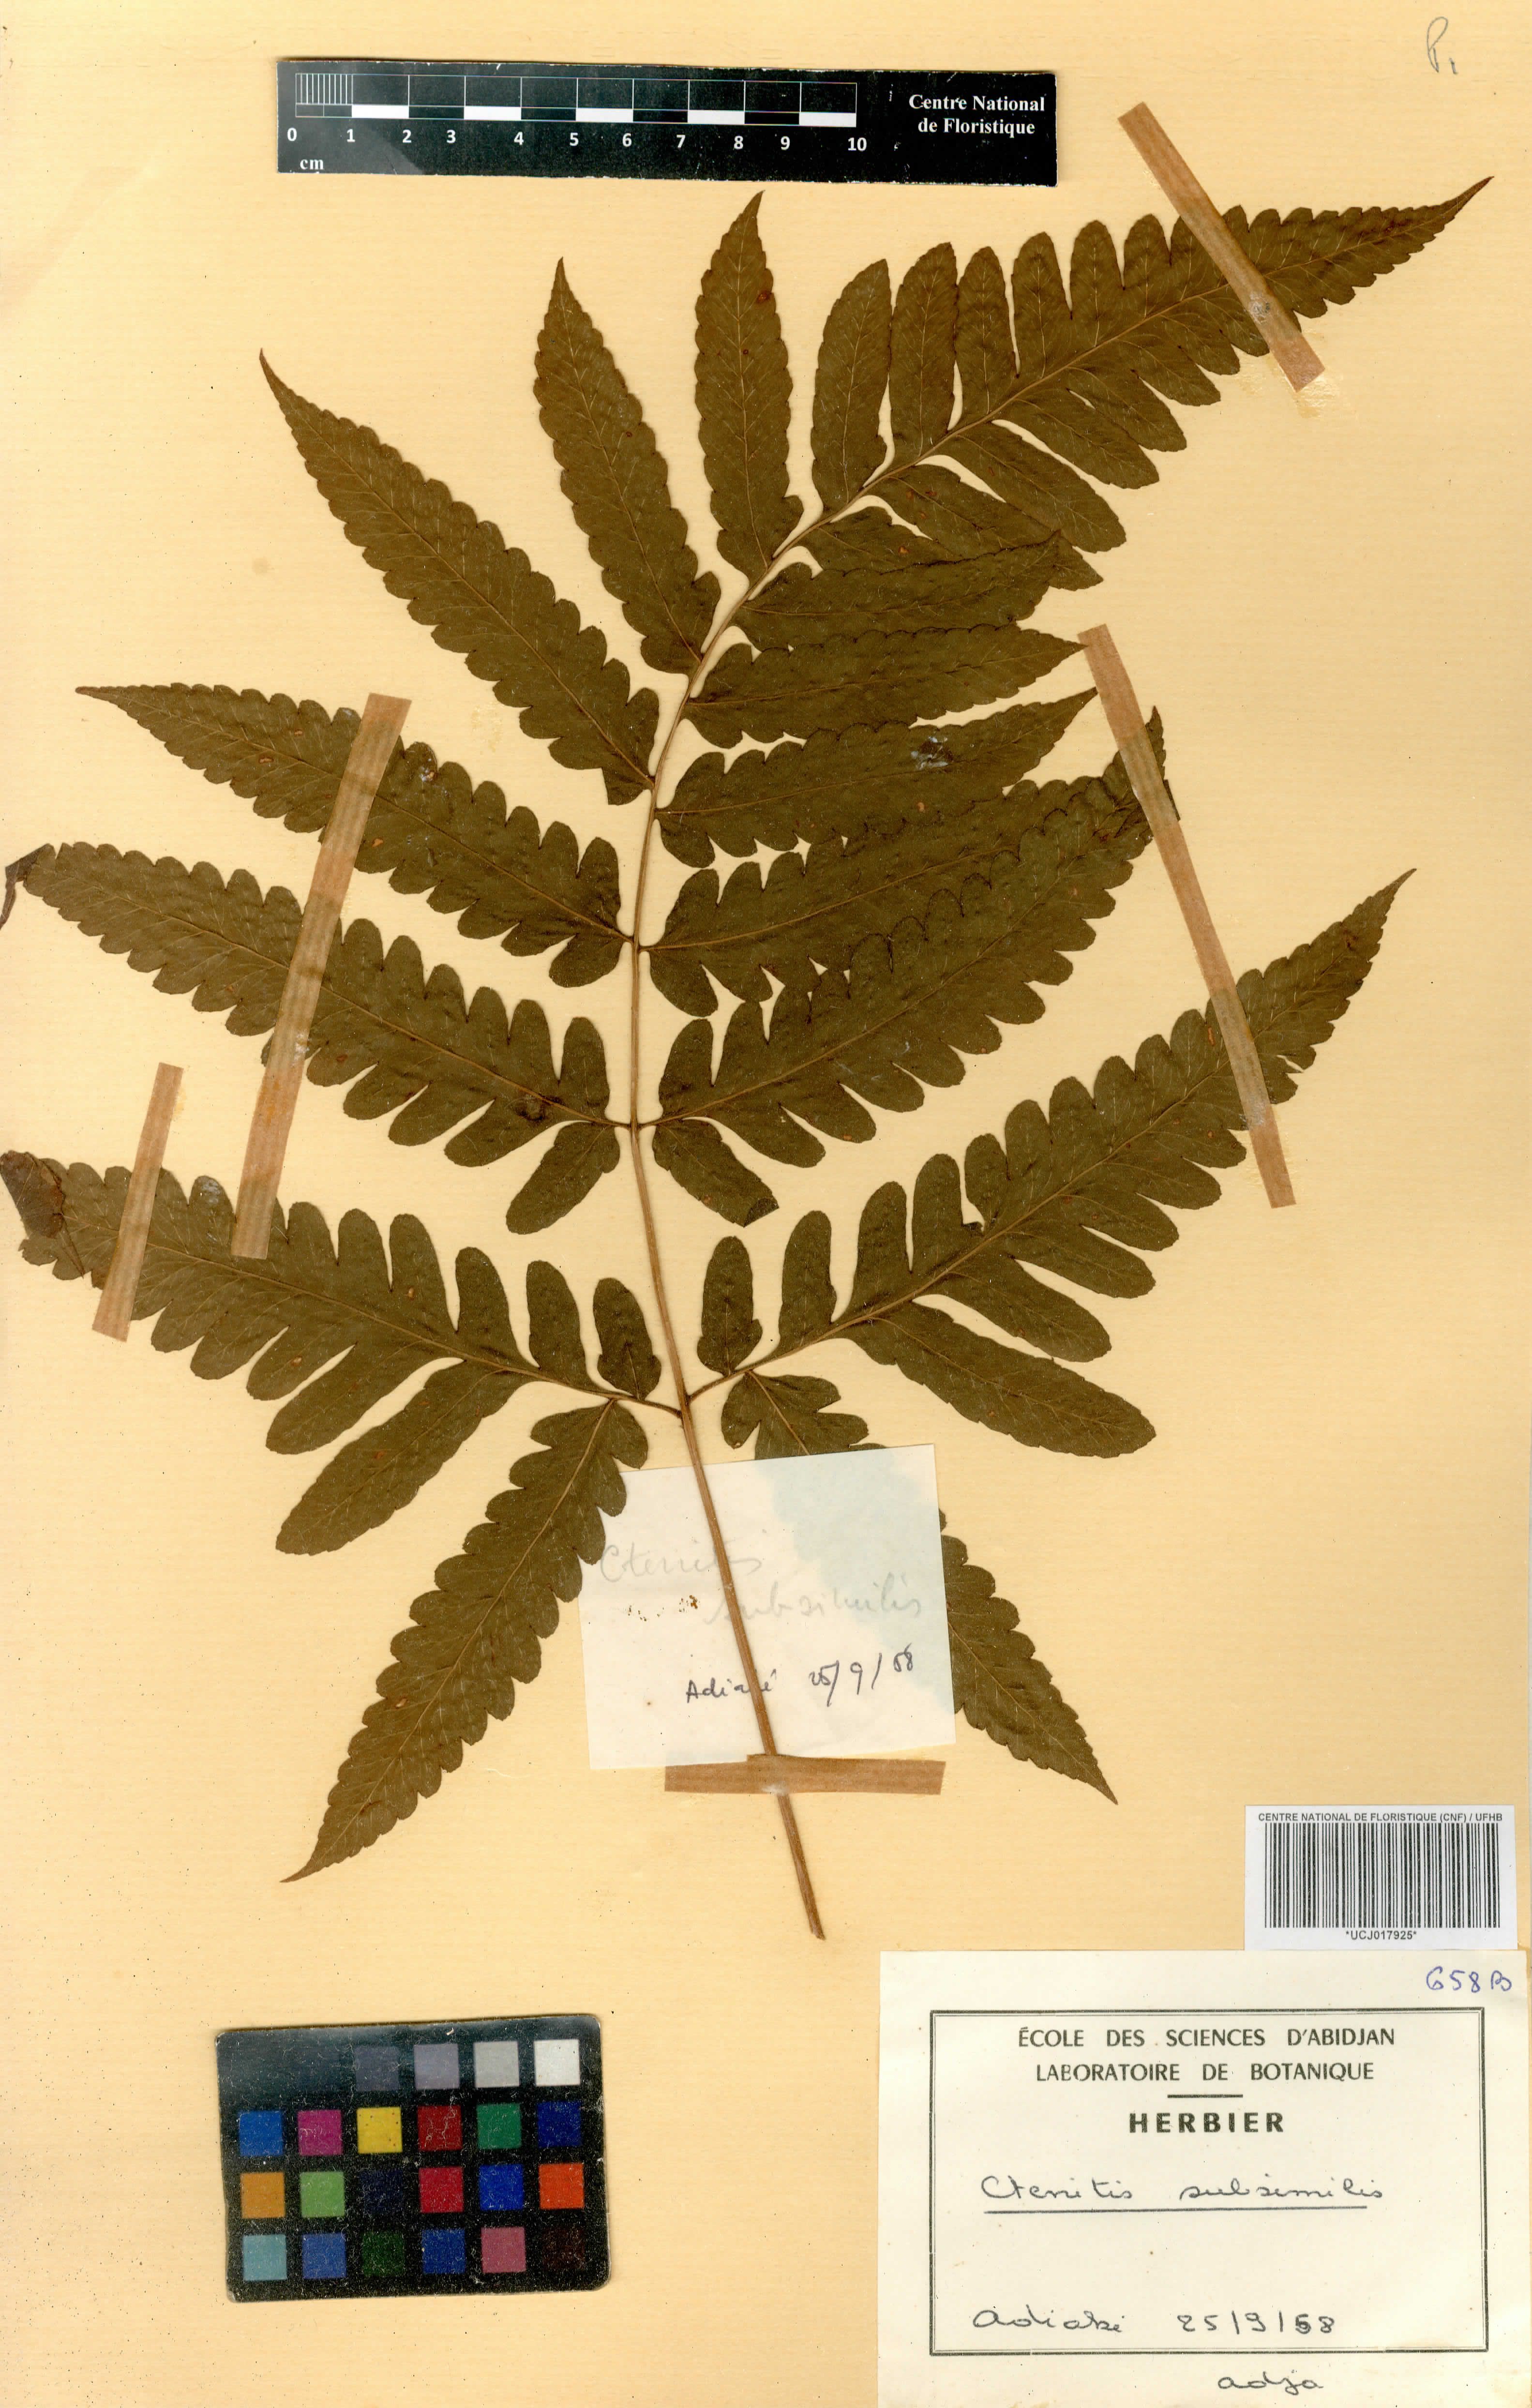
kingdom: Plantae
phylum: Tracheophyta
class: Polypodiopsida
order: Polypodiales
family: Dryopteridaceae
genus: Parapolystichum
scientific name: Parapolystichum subsimile
